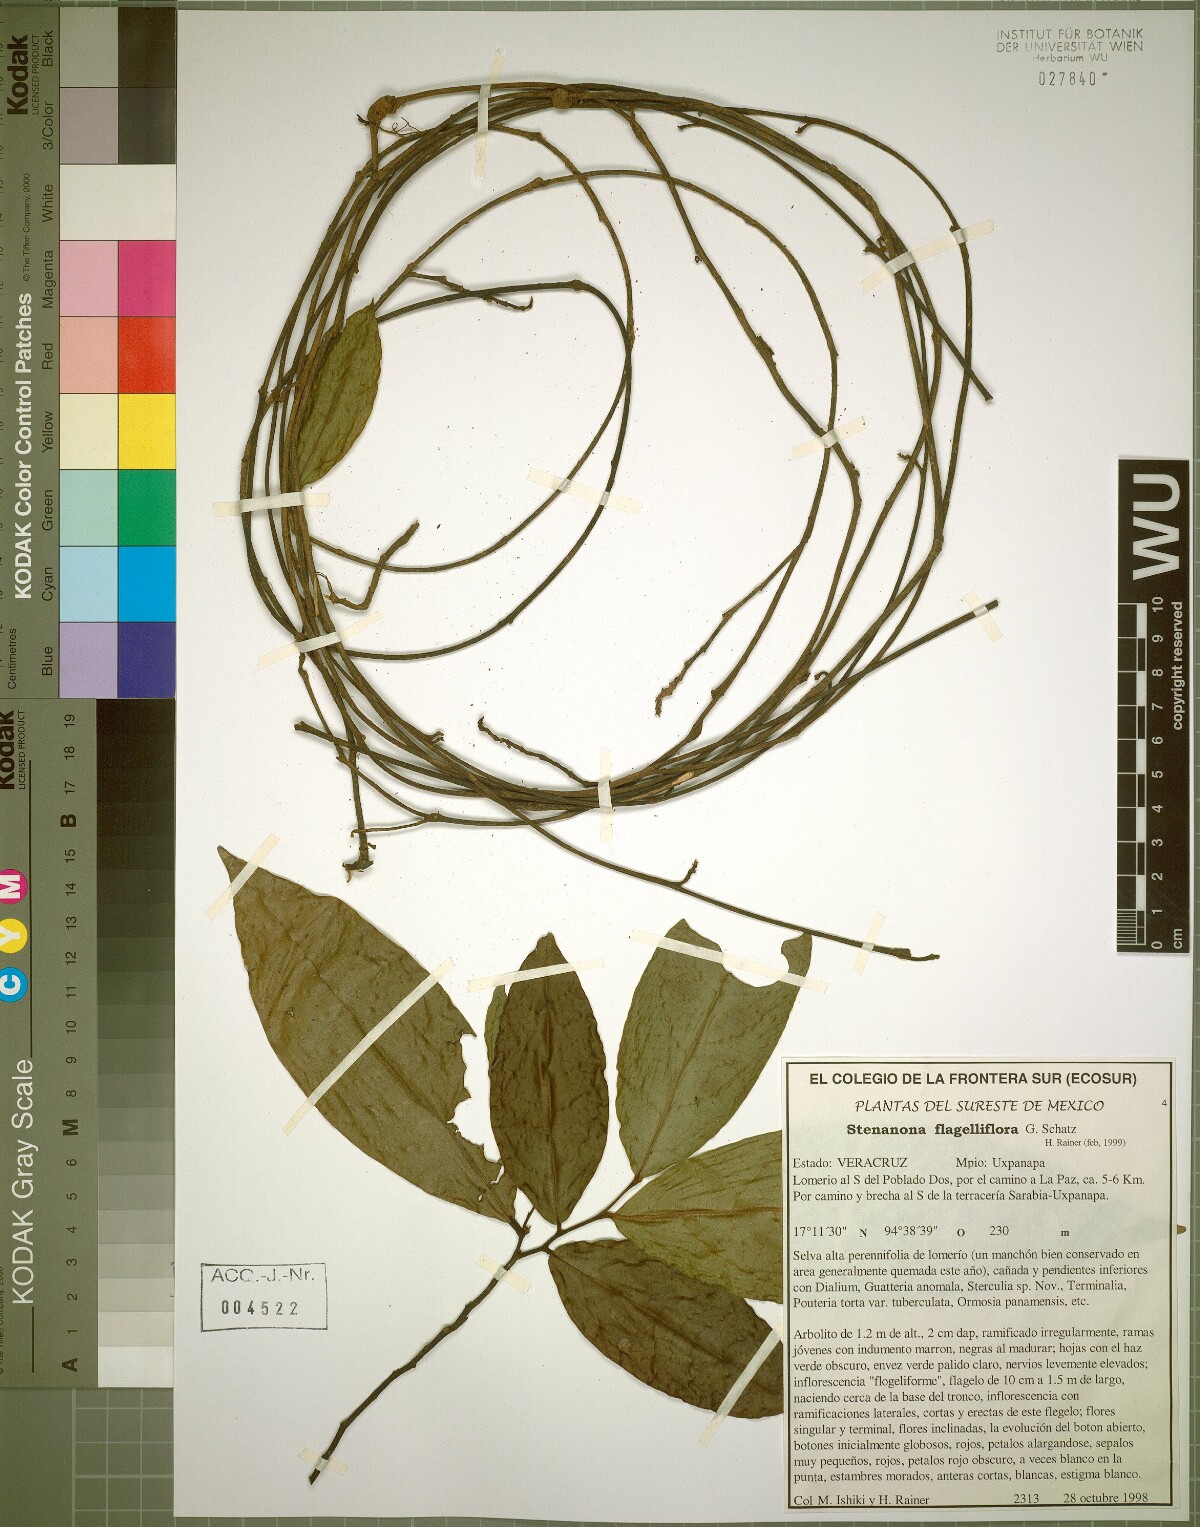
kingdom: Plantae
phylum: Tracheophyta
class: Magnoliopsida
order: Magnoliales
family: Annonaceae
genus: Stenanona
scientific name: Stenanona flagelliflora
